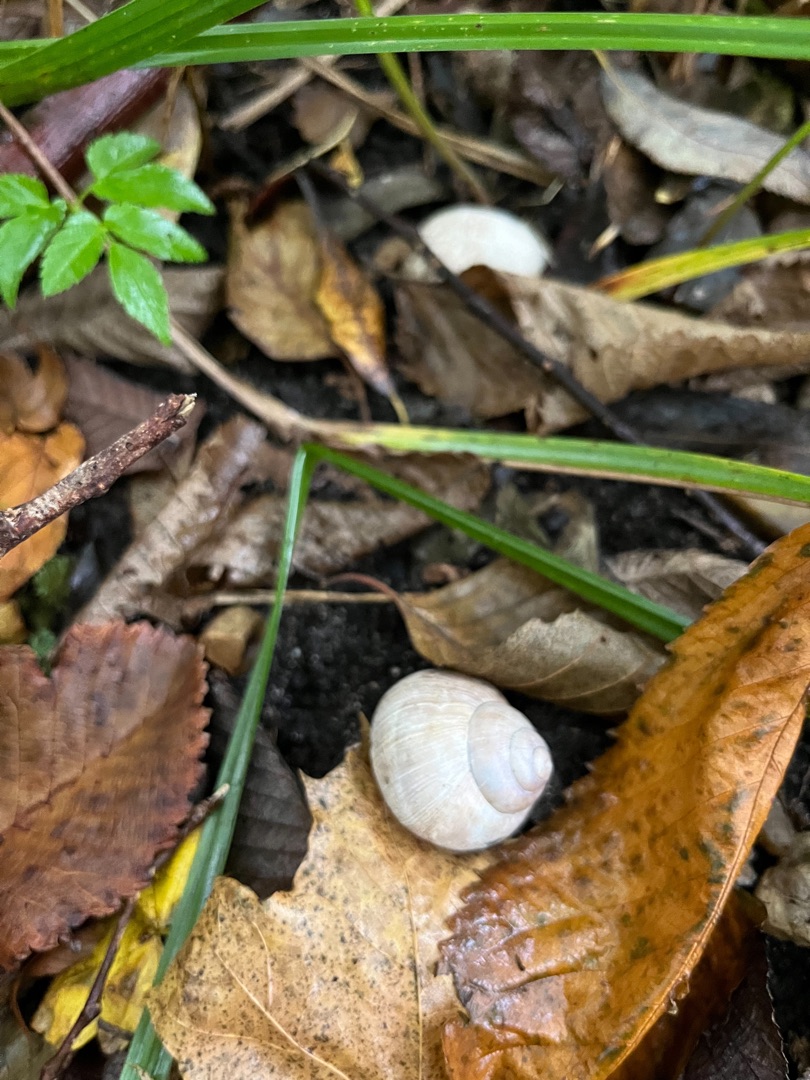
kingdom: Animalia
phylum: Mollusca
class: Gastropoda
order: Stylommatophora
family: Helicidae
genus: Helix
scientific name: Helix pomatia
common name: Vinbjergsnegl
